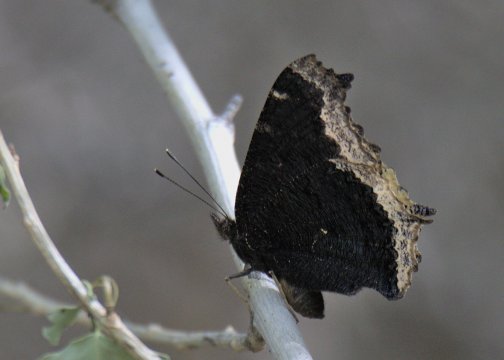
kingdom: Animalia
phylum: Arthropoda
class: Insecta
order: Lepidoptera
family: Nymphalidae
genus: Nymphalis
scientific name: Nymphalis antiopa
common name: Mourning Cloak
